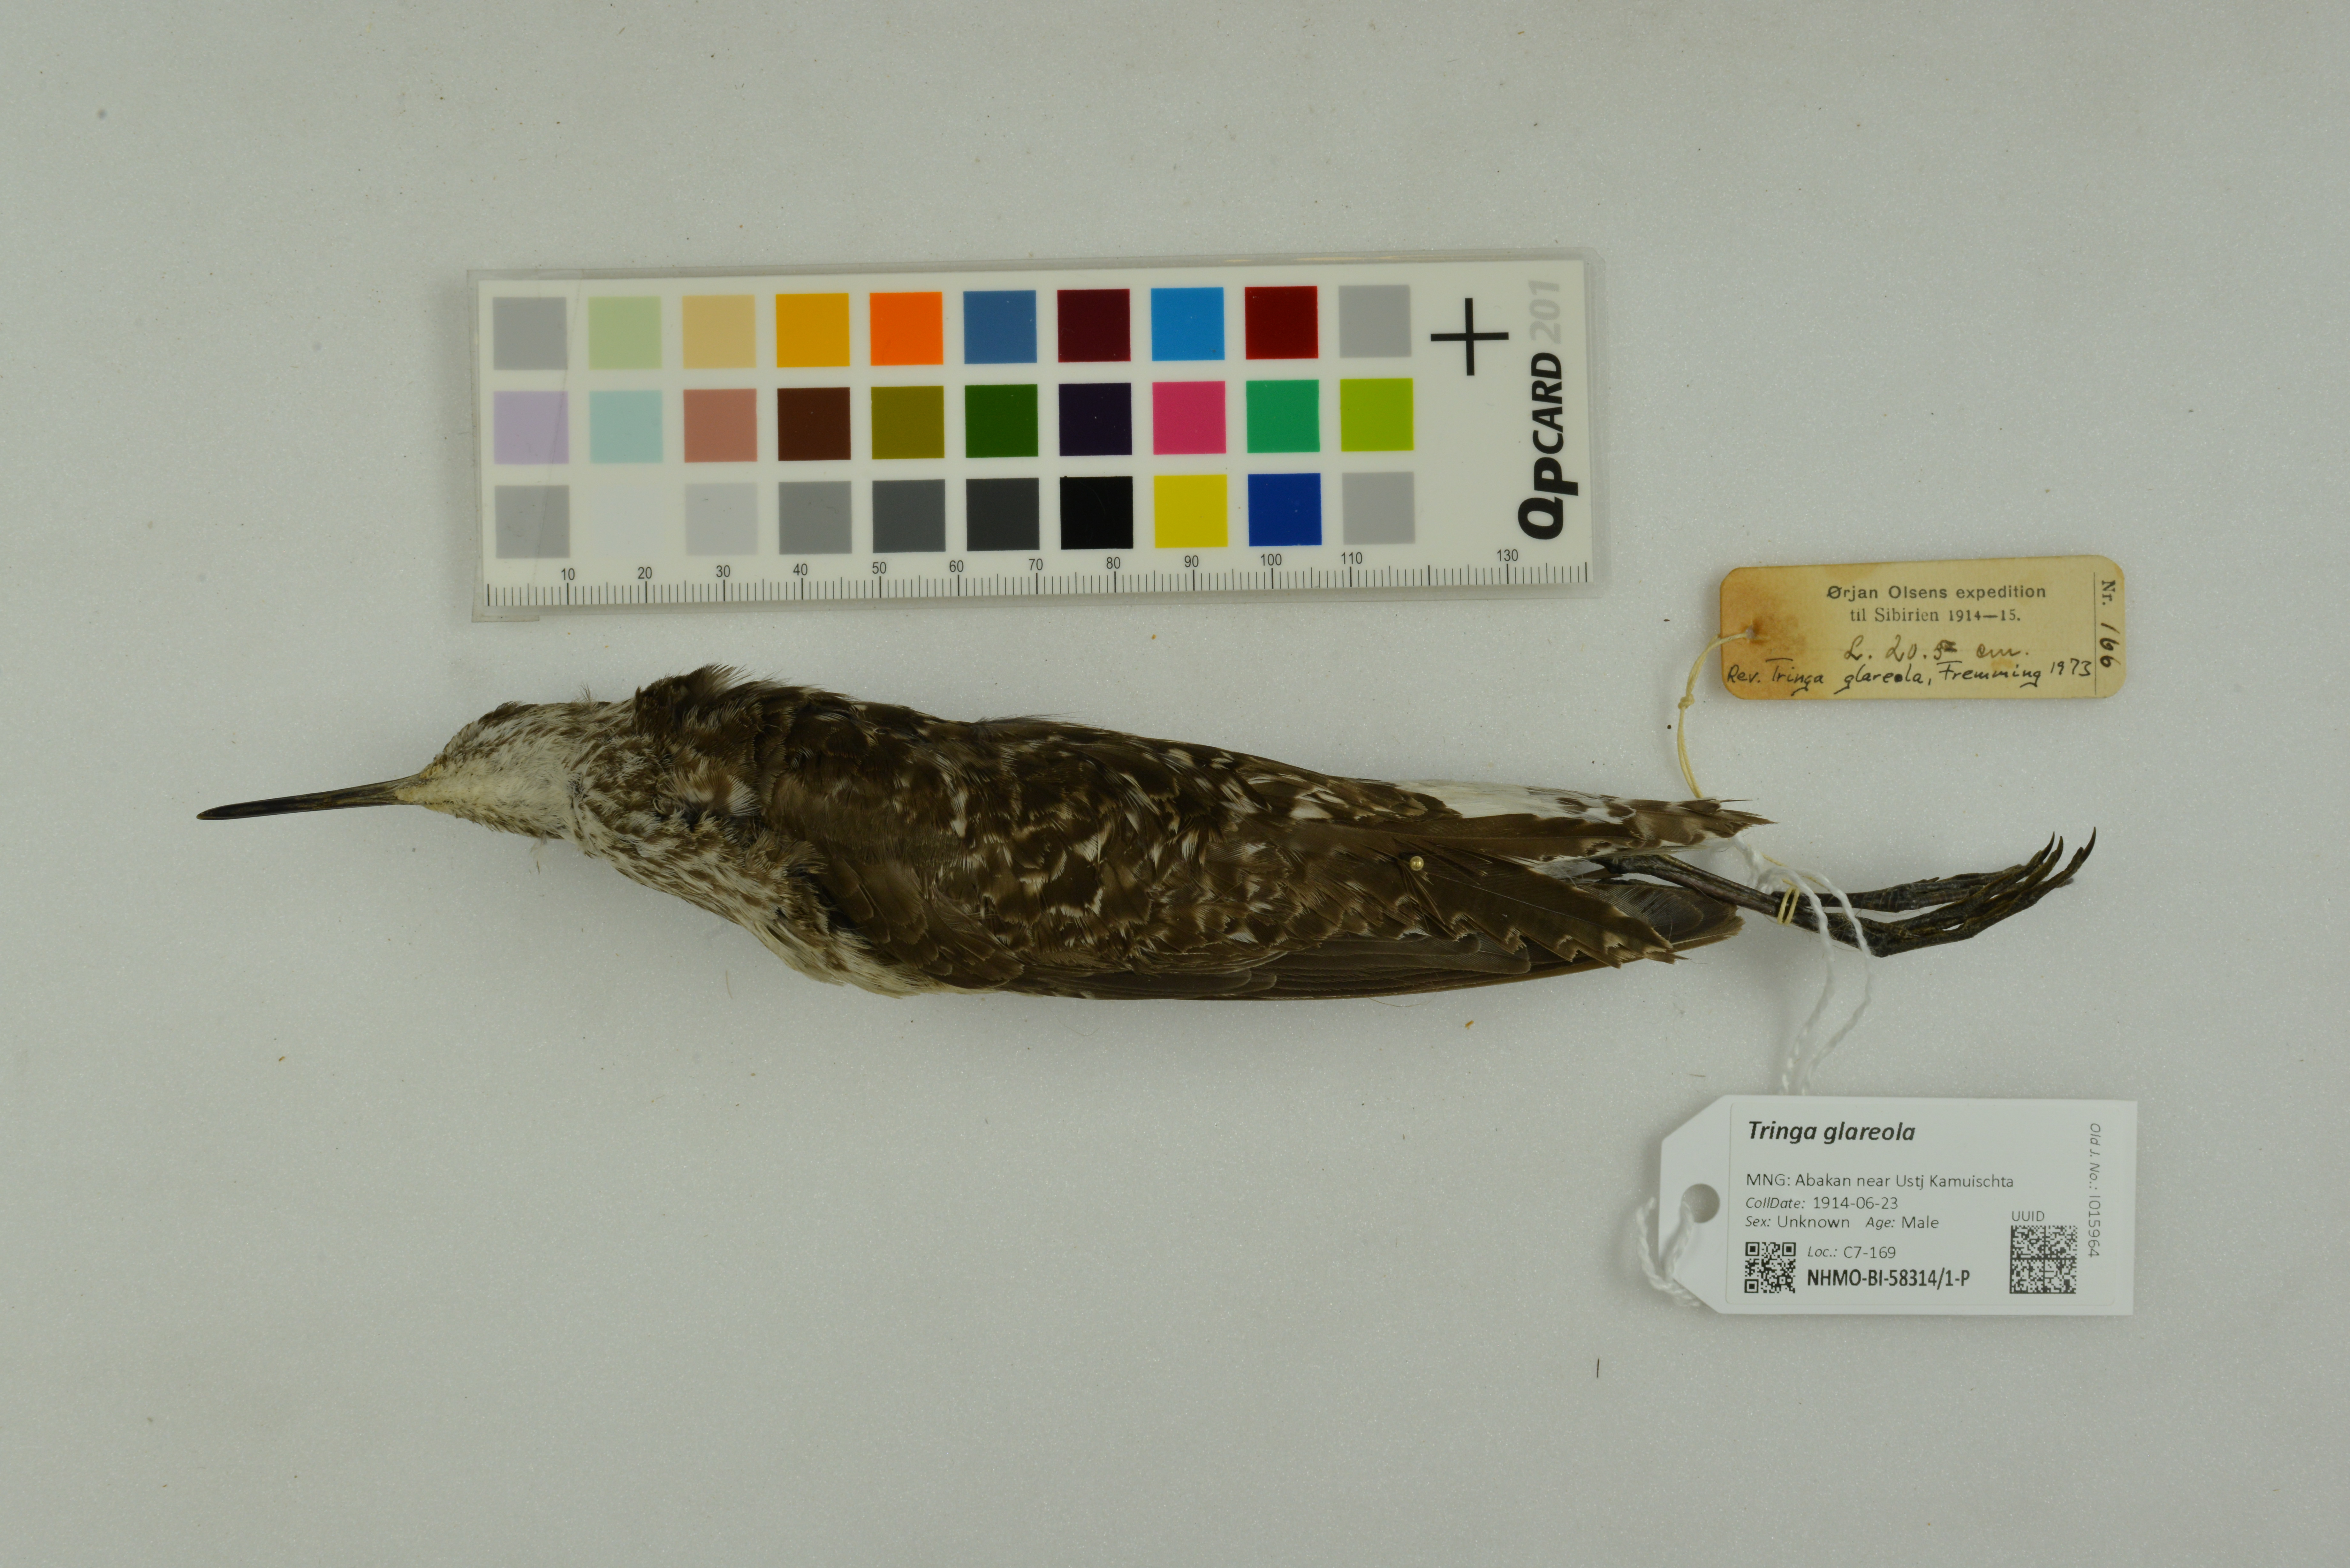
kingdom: Animalia
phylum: Chordata
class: Aves
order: Charadriiformes
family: Scolopacidae
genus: Tringa
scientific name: Tringa glareola
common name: Wood sandpiper
